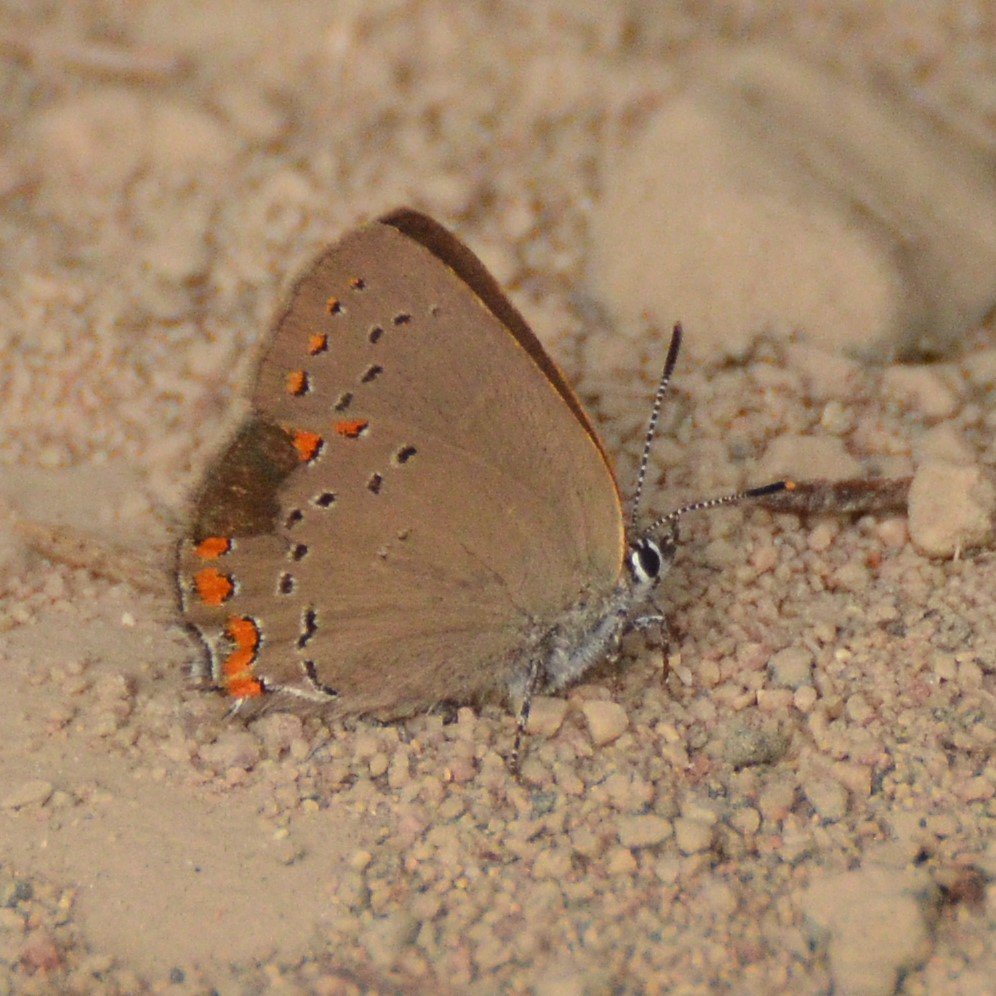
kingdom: Animalia
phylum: Arthropoda
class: Insecta
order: Lepidoptera
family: Lycaenidae
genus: Harkenclenus
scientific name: Harkenclenus titus
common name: Coral Hairstreak
